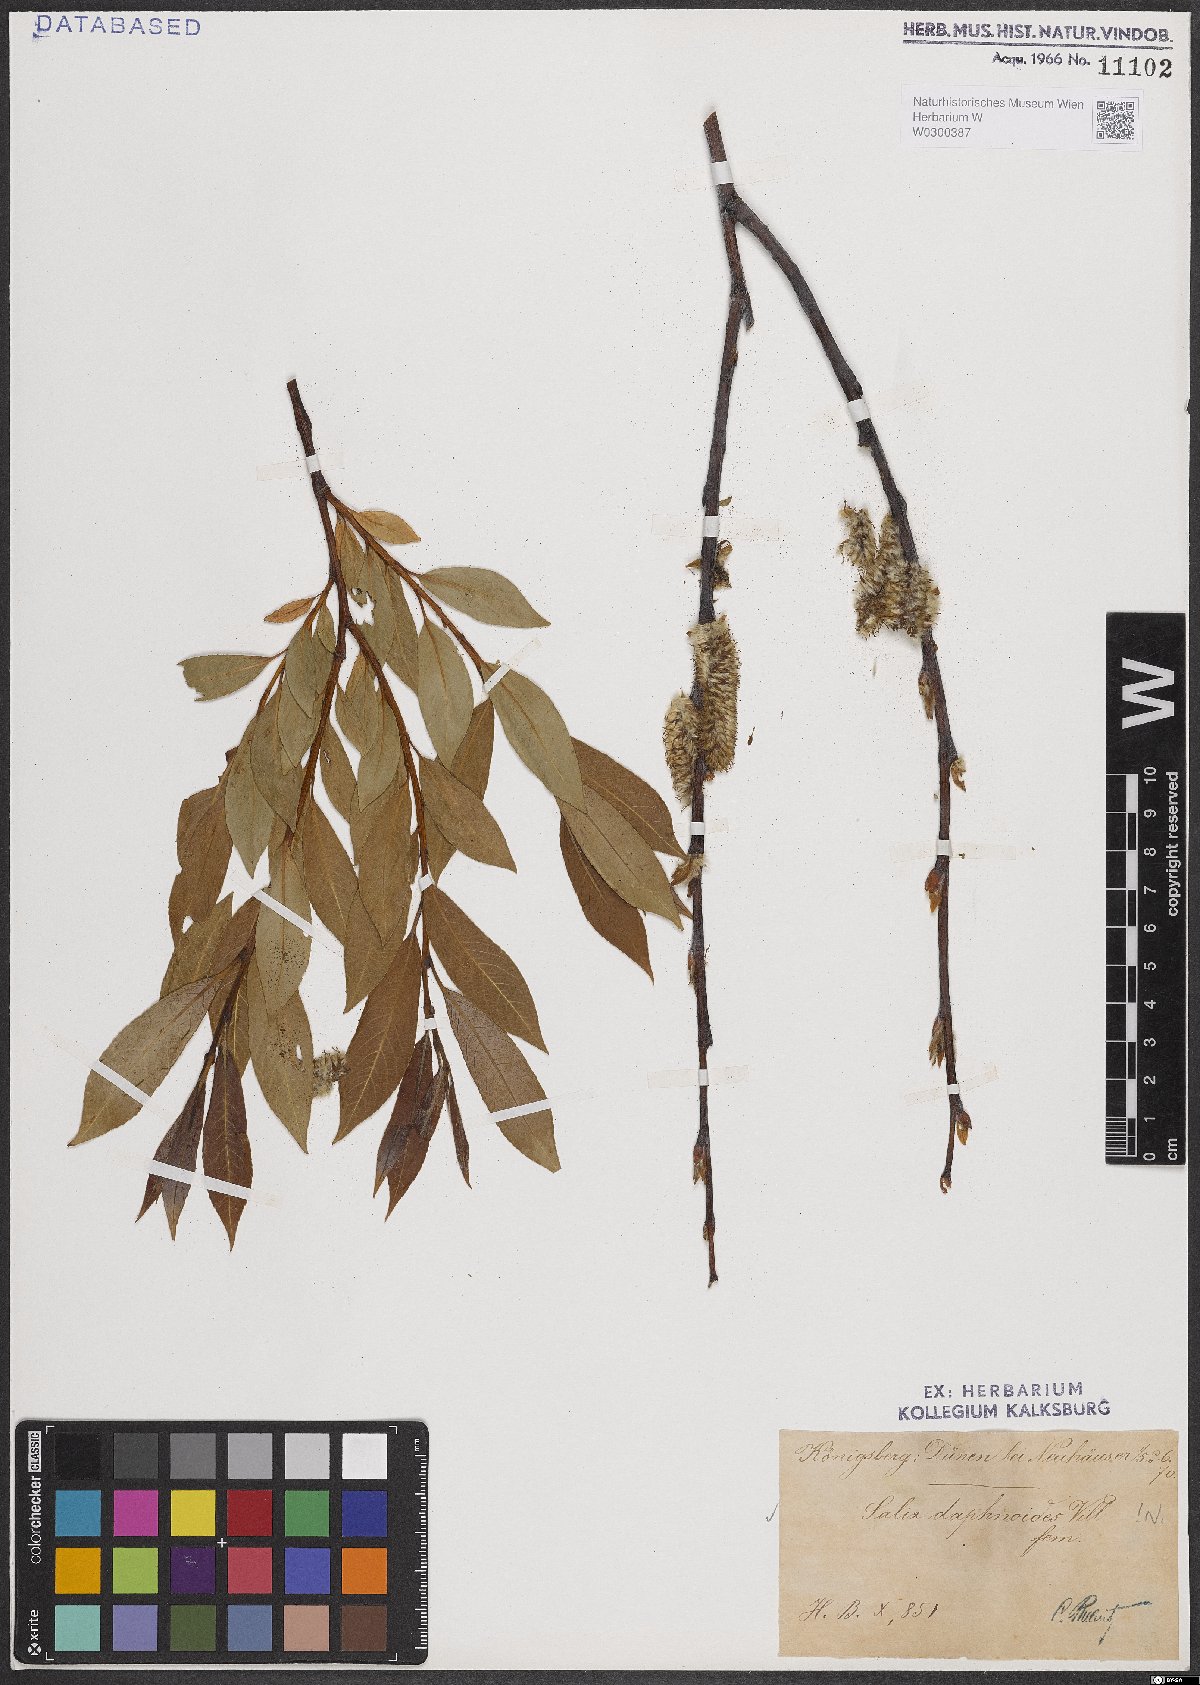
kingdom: Plantae
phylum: Tracheophyta
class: Magnoliopsida
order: Malpighiales
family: Salicaceae
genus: Salix
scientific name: Salix daphnoides
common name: European violet-willow
